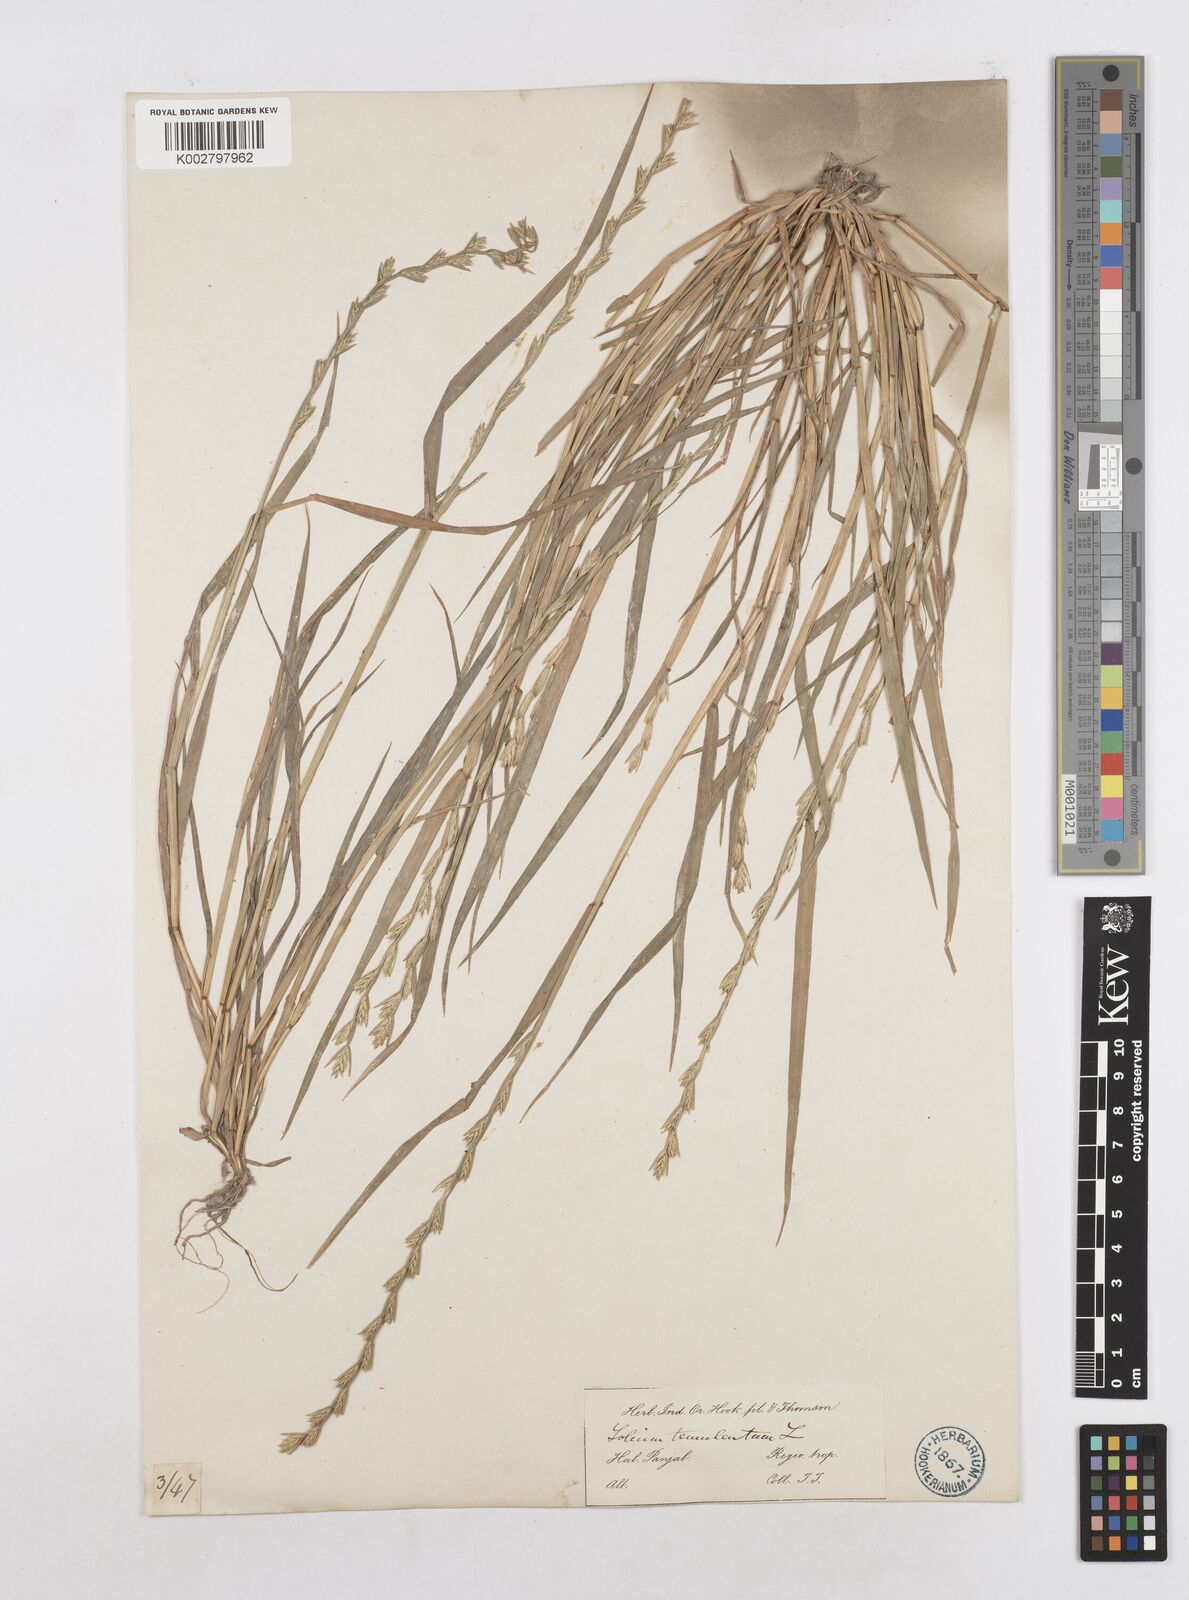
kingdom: Plantae
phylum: Tracheophyta
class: Liliopsida
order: Poales
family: Poaceae
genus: Lolium
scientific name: Lolium temulentum
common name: Darnel
